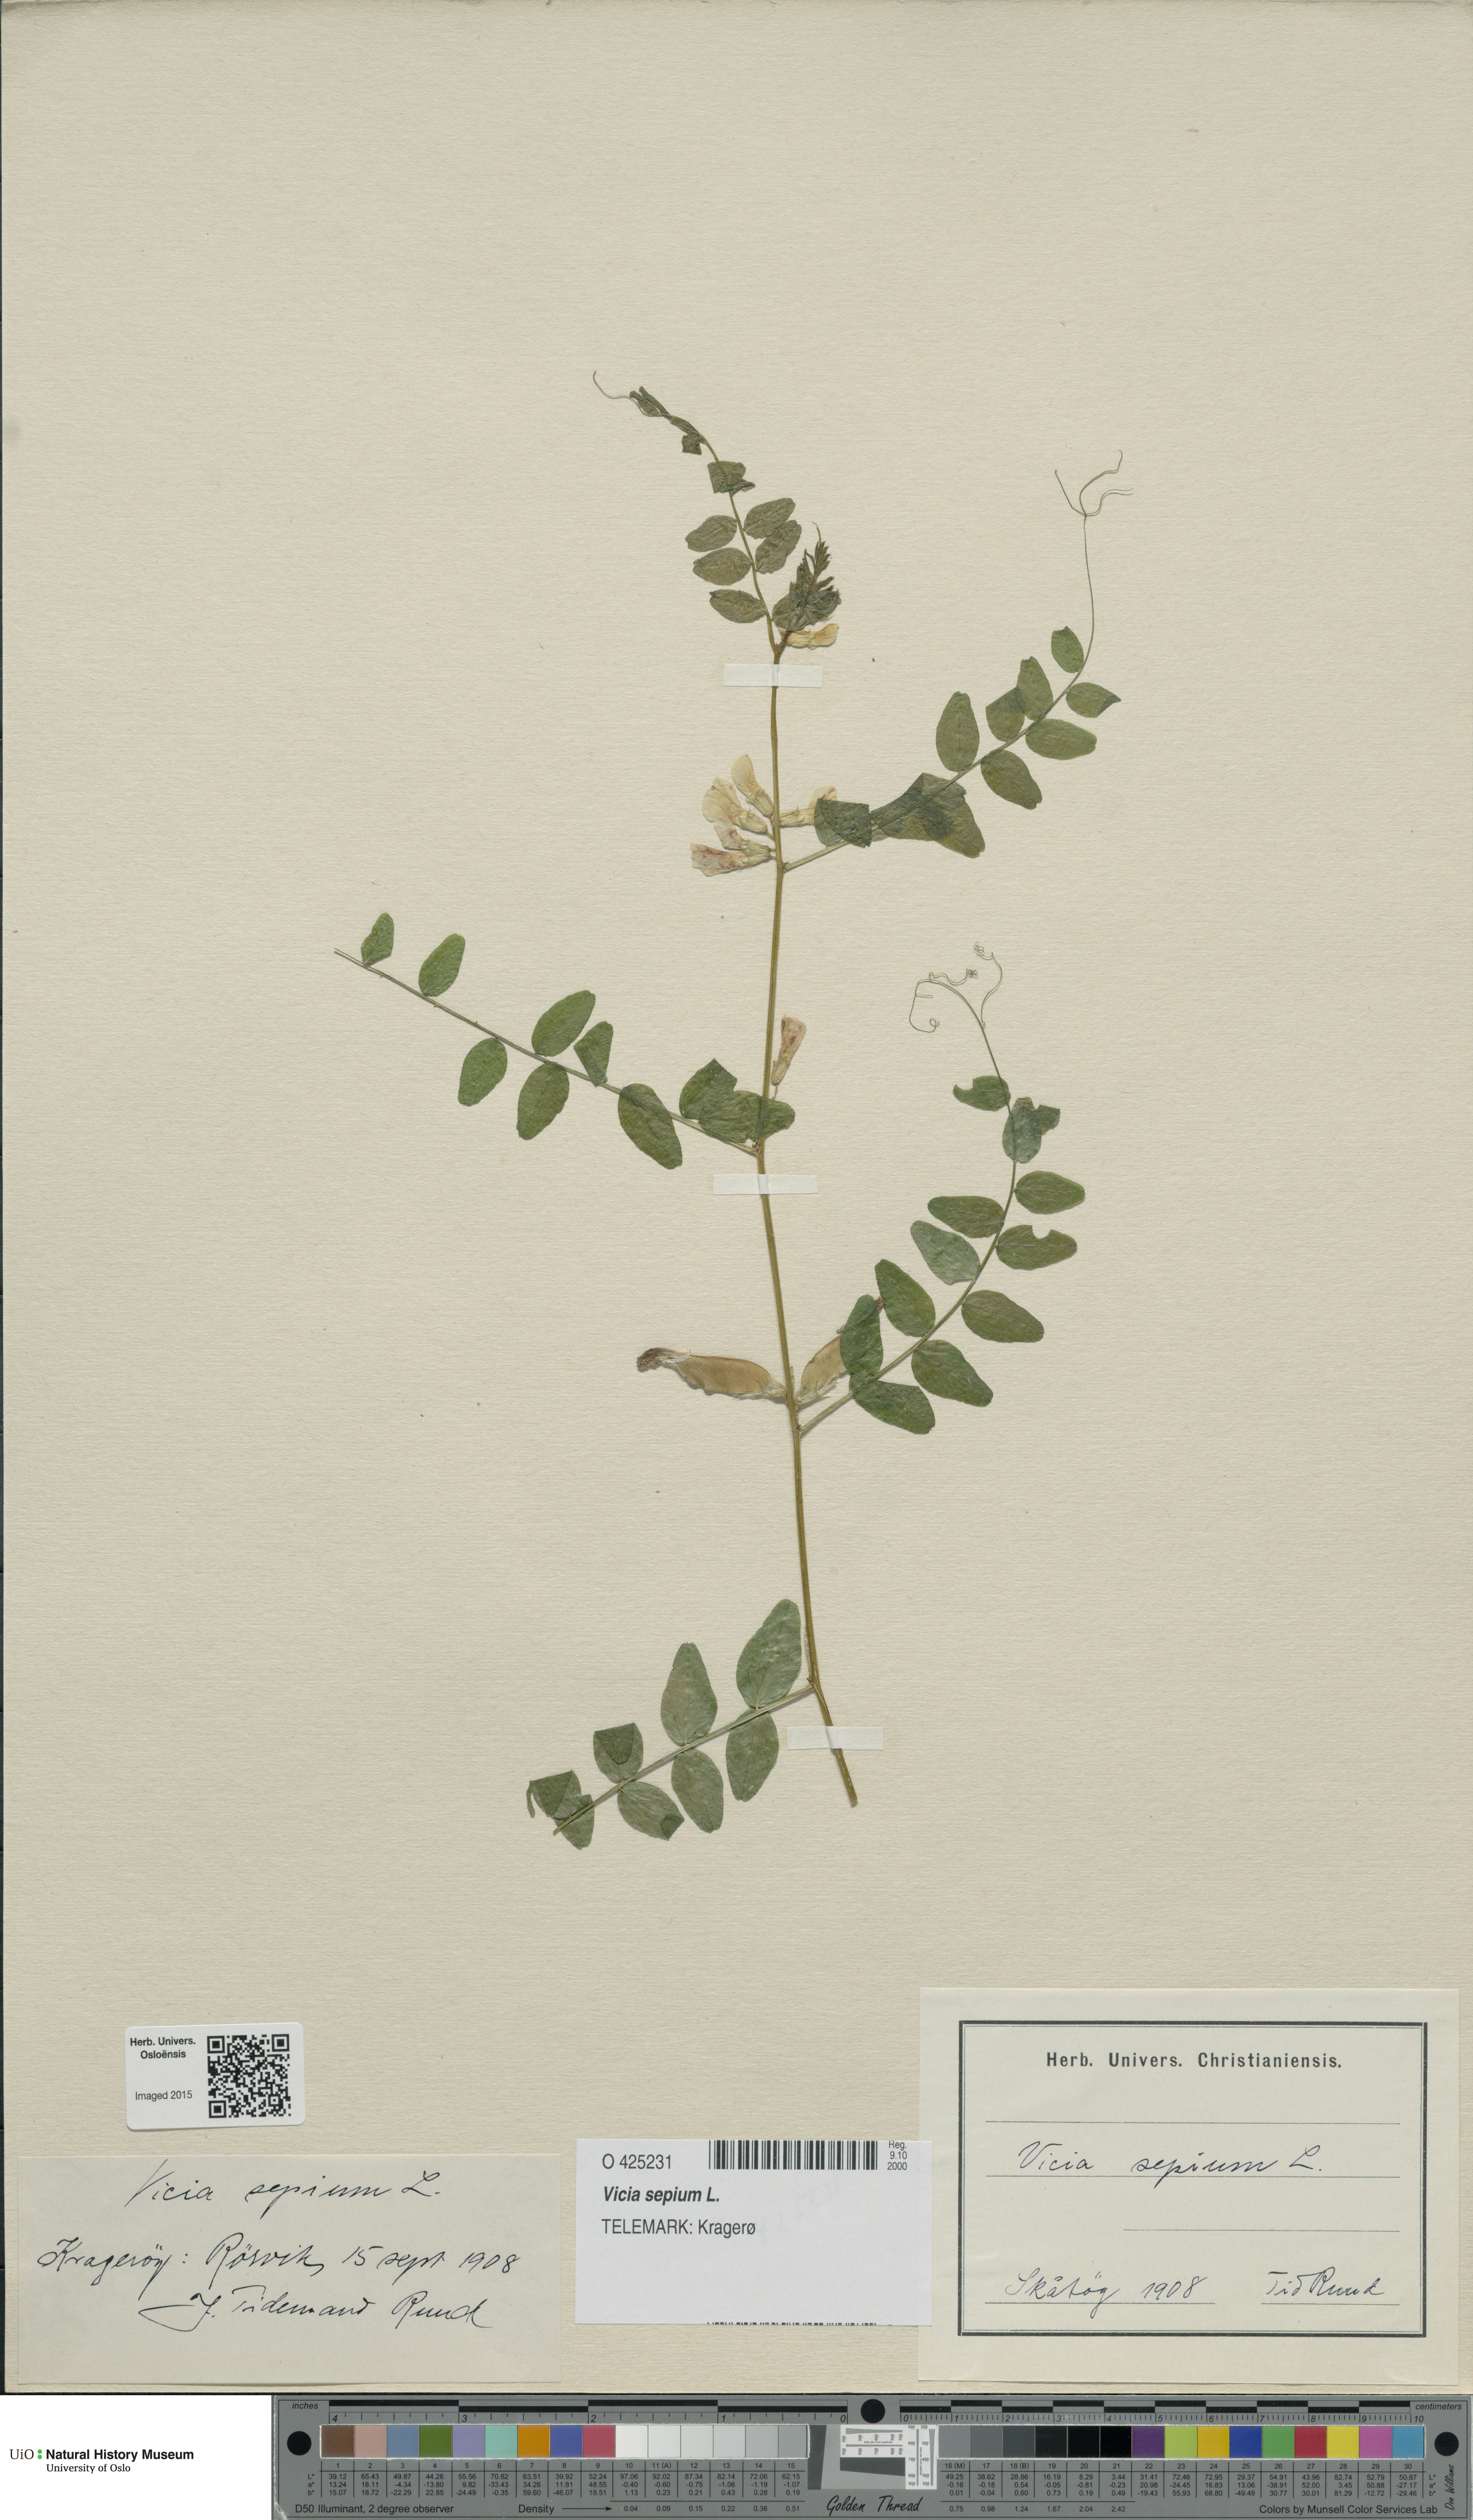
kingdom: Plantae
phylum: Tracheophyta
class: Magnoliopsida
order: Fabales
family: Fabaceae
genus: Vicia
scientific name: Vicia sepium
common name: Bush vetch
